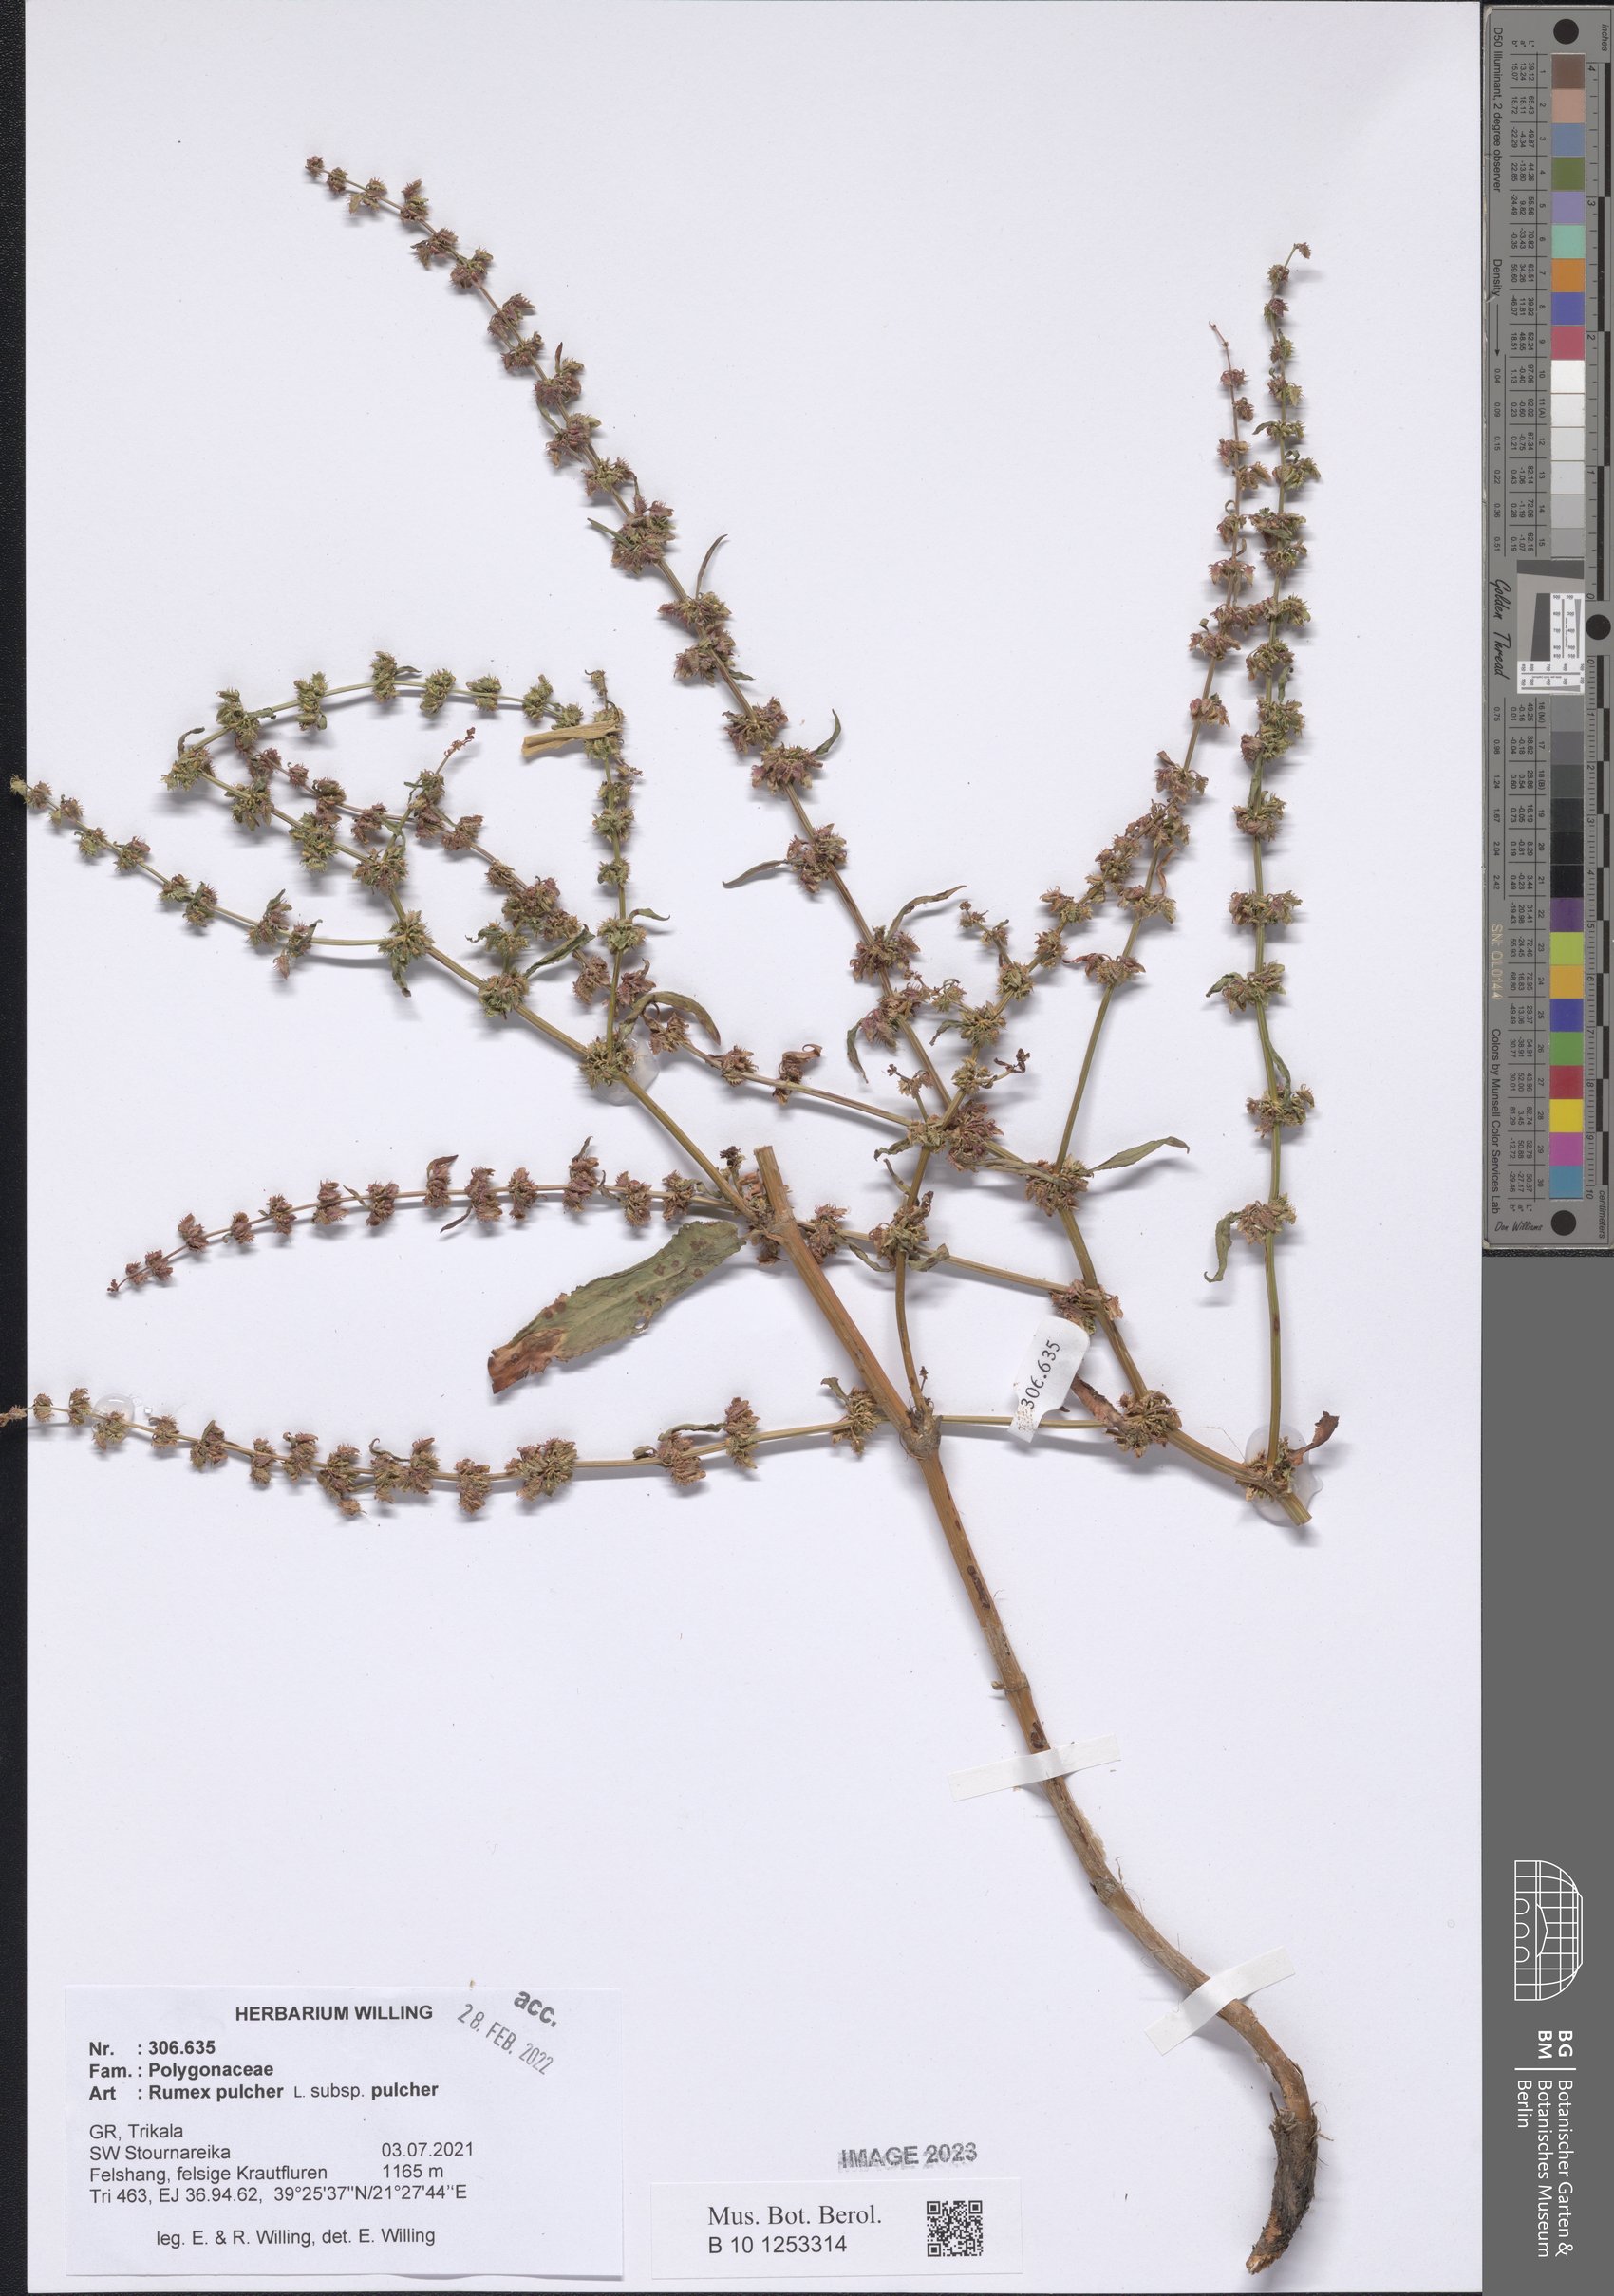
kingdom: Plantae
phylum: Tracheophyta
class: Magnoliopsida
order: Caryophyllales
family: Polygonaceae
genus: Rumex
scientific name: Rumex pulcher
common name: Fiddle dock
